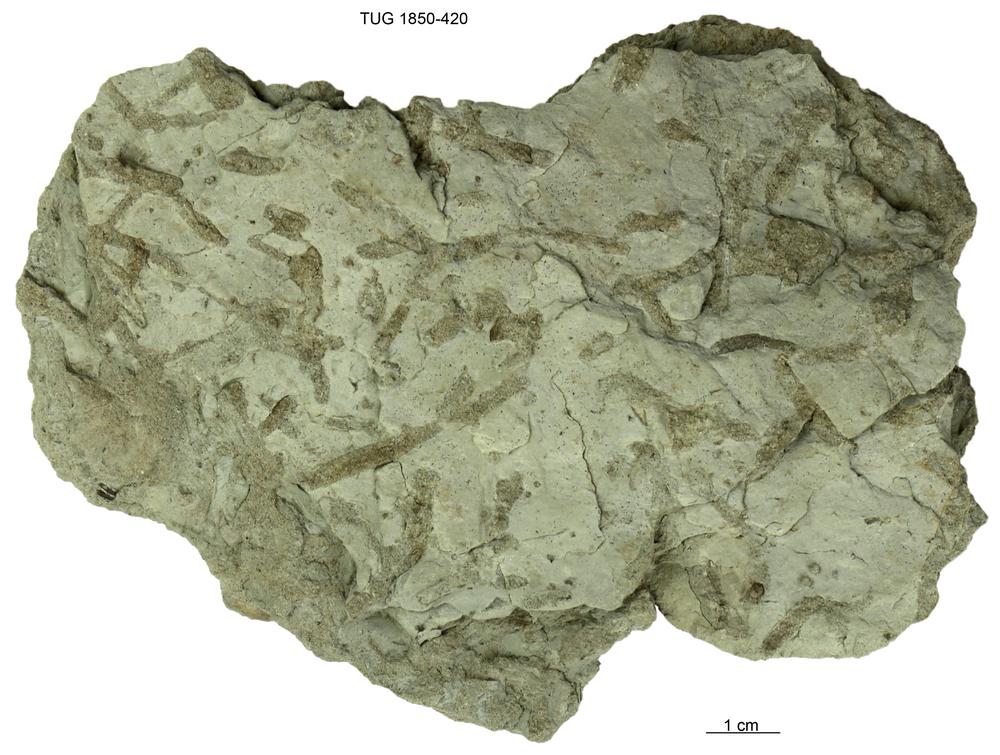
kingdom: Animalia
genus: Chondrites
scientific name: Chondrites
